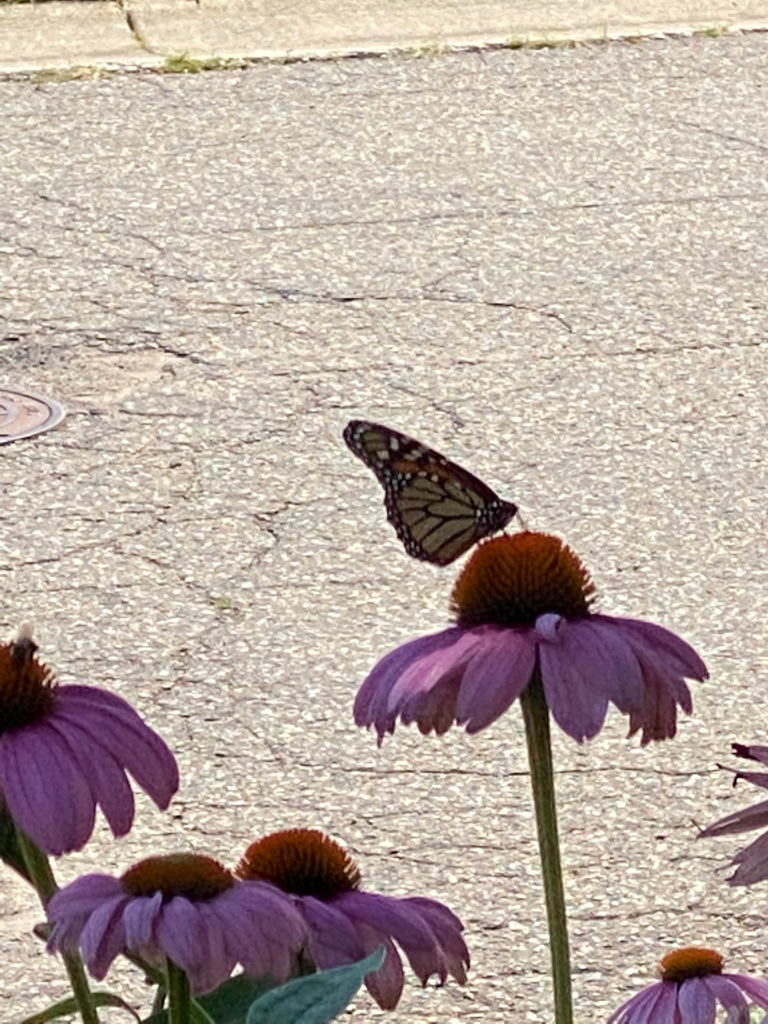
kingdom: Animalia
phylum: Arthropoda
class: Insecta
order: Lepidoptera
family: Nymphalidae
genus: Danaus
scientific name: Danaus plexippus
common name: Monarch
